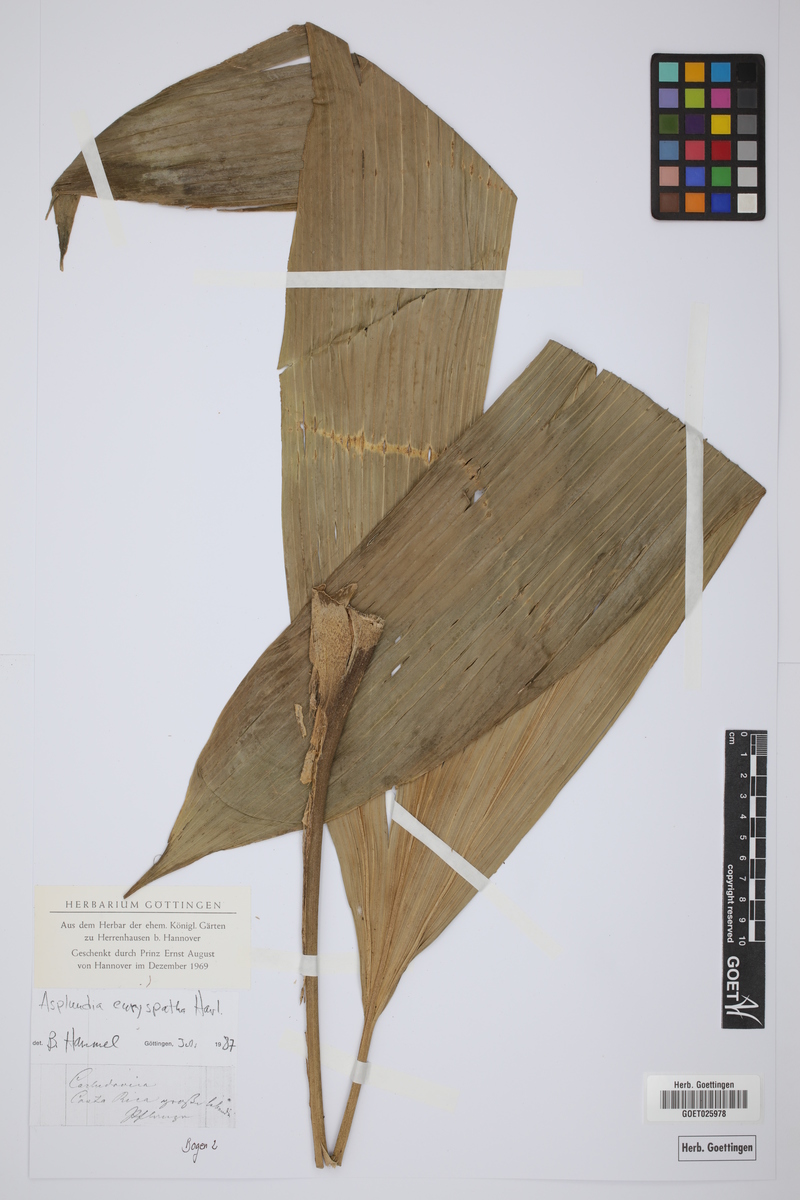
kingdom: Plantae
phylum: Tracheophyta
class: Liliopsida
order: Pandanales
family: Cyclanthaceae
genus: Asplundia
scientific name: Asplundia euryspatha
